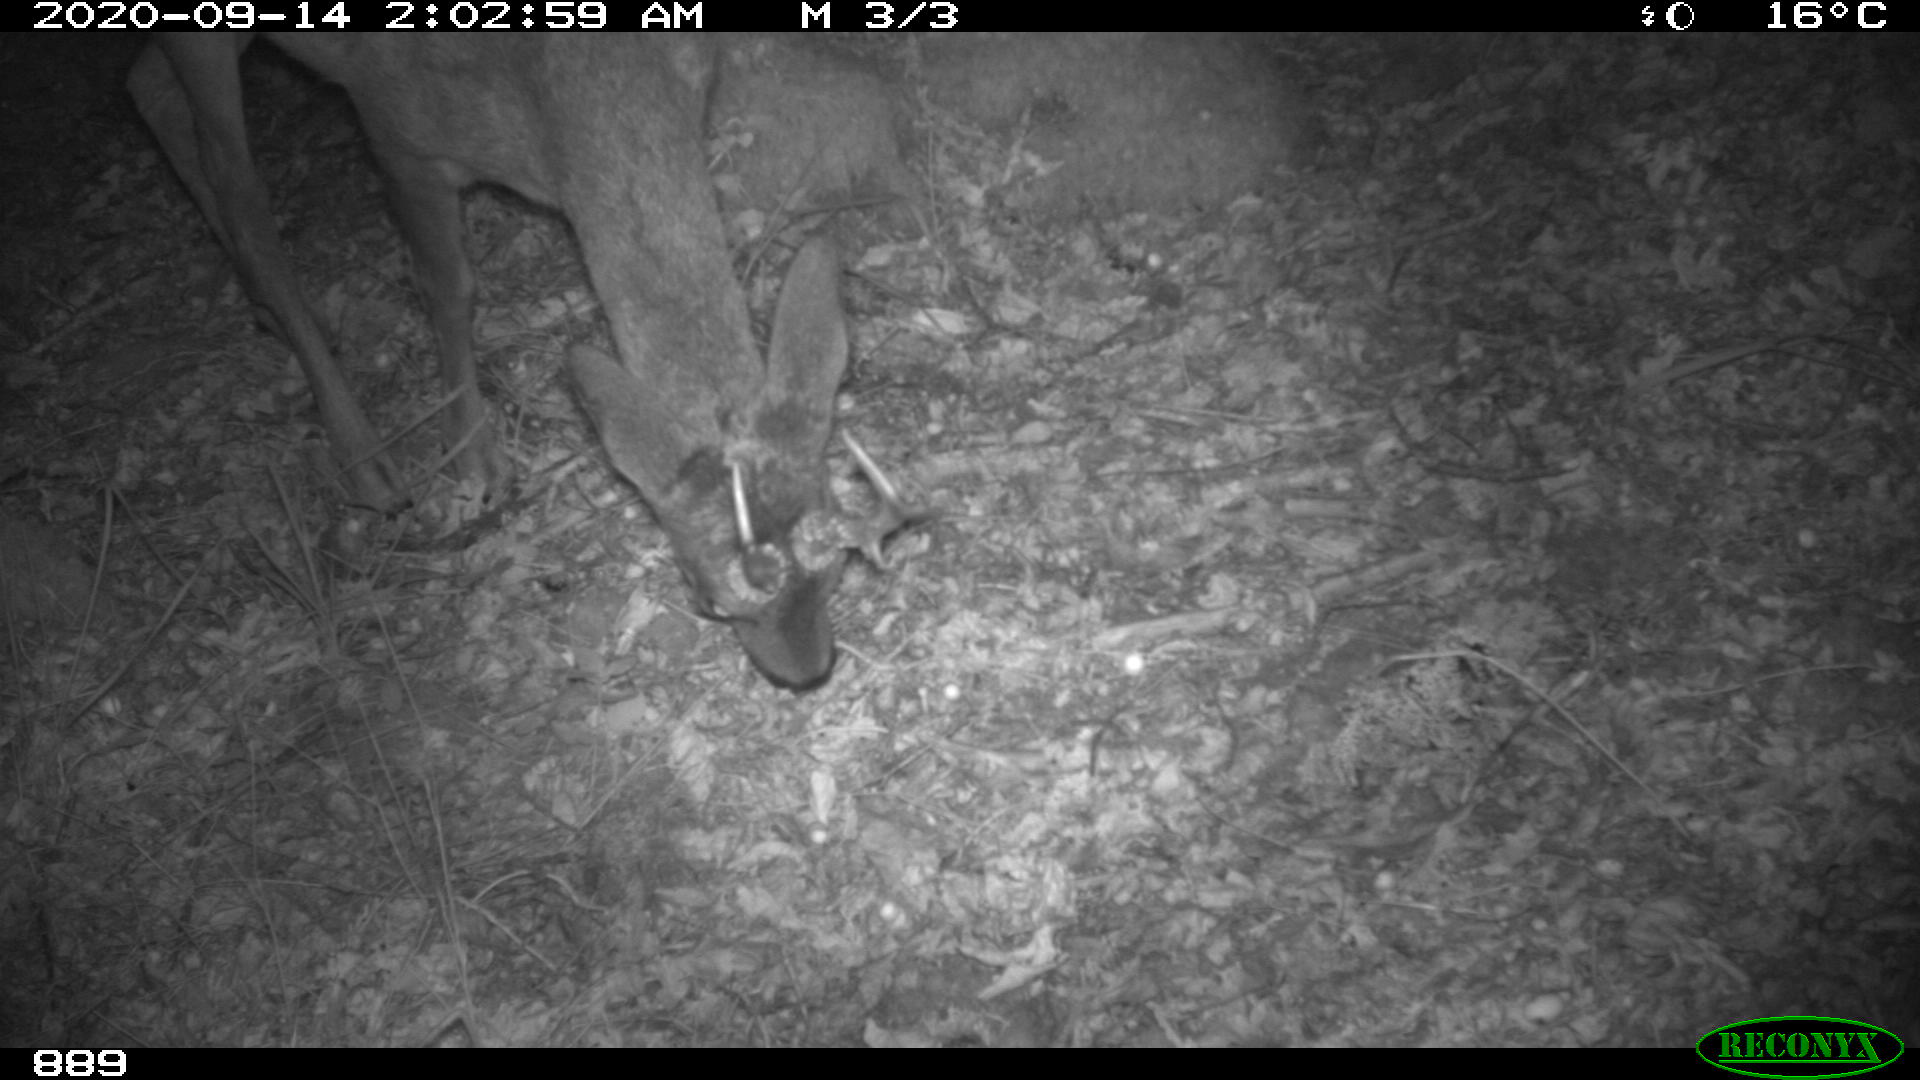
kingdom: Animalia
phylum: Chordata
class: Mammalia
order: Artiodactyla
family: Cervidae
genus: Capreolus
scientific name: Capreolus capreolus
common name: Western roe deer
